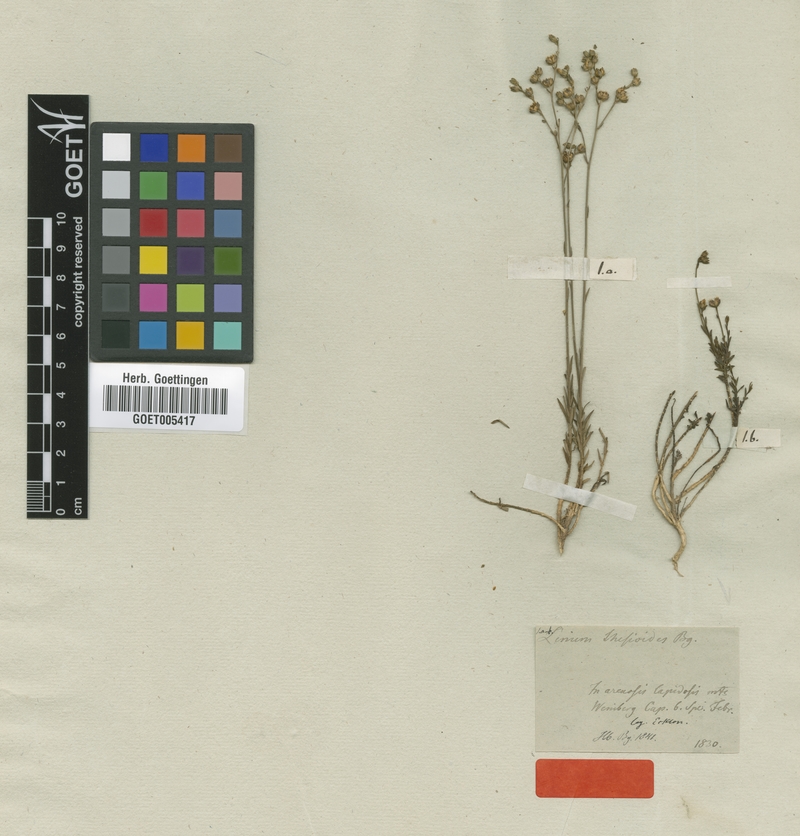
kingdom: Plantae
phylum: Tracheophyta
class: Magnoliopsida
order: Malpighiales
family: Linaceae
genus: Linum
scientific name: Linum thesioides
